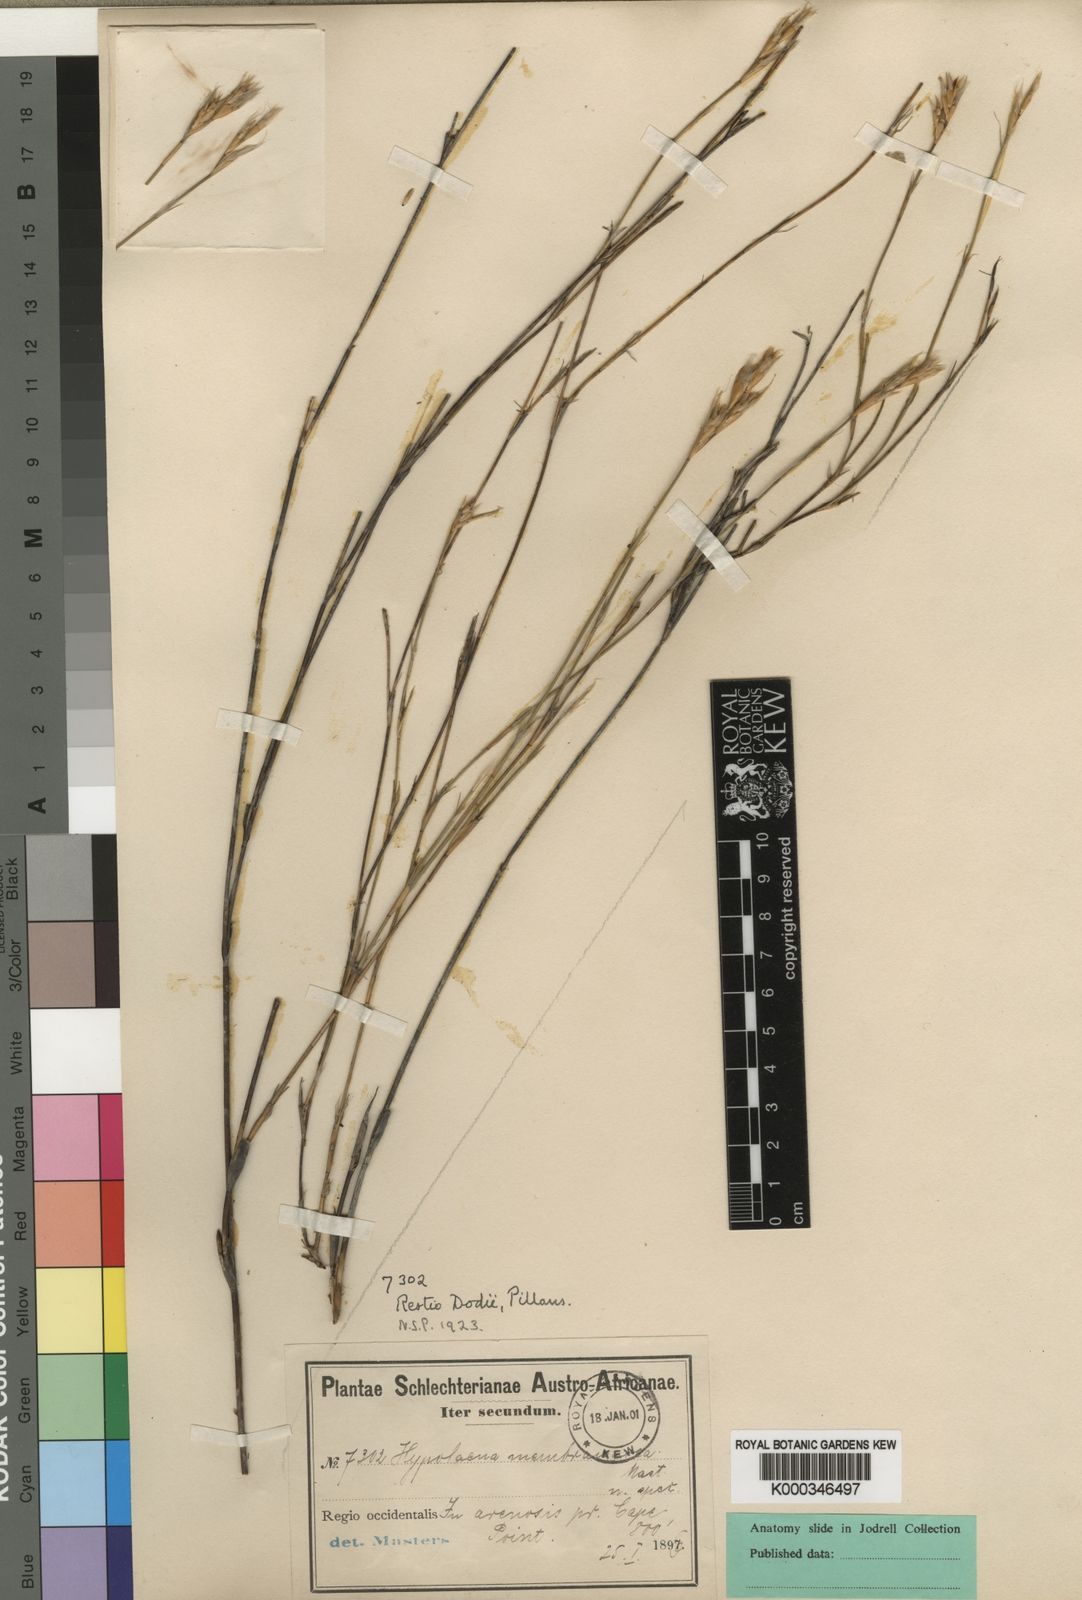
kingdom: Plantae
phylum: Tracheophyta
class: Liliopsida
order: Poales
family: Restionaceae
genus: Restio
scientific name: Restio dodii
